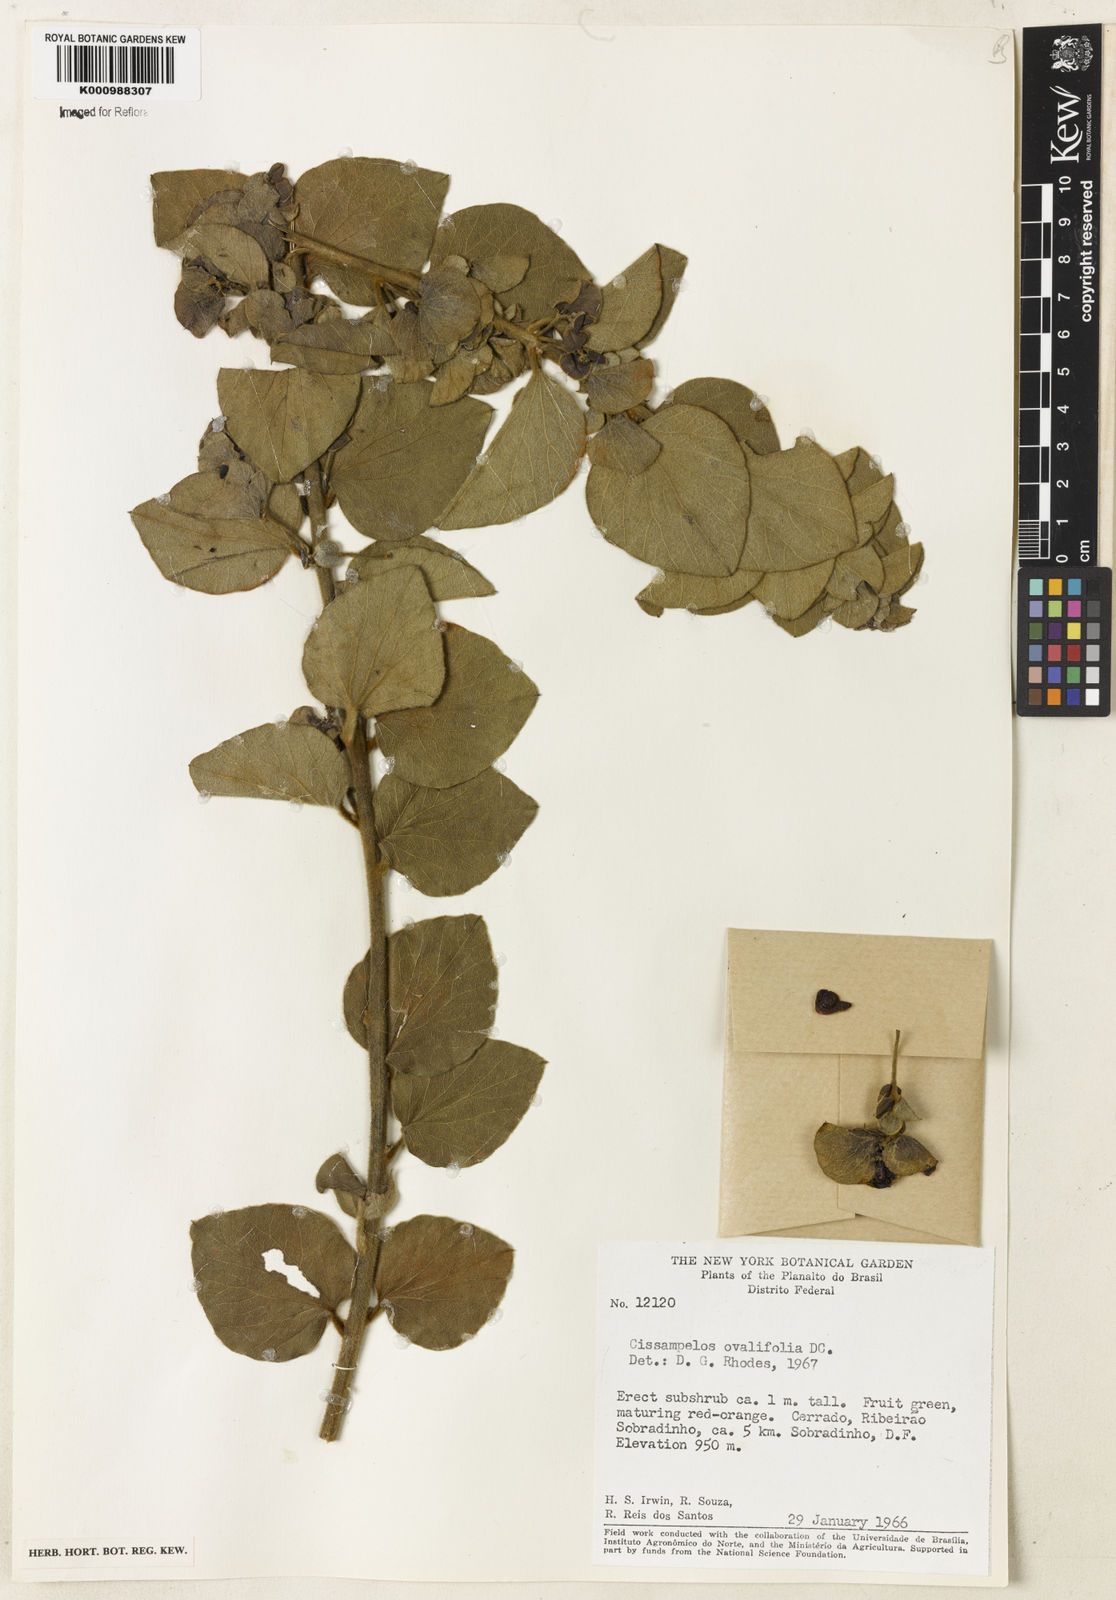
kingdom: Plantae
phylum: Tracheophyta
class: Magnoliopsida
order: Ranunculales
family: Menispermaceae
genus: Cissampelos
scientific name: Cissampelos ovalifolia
